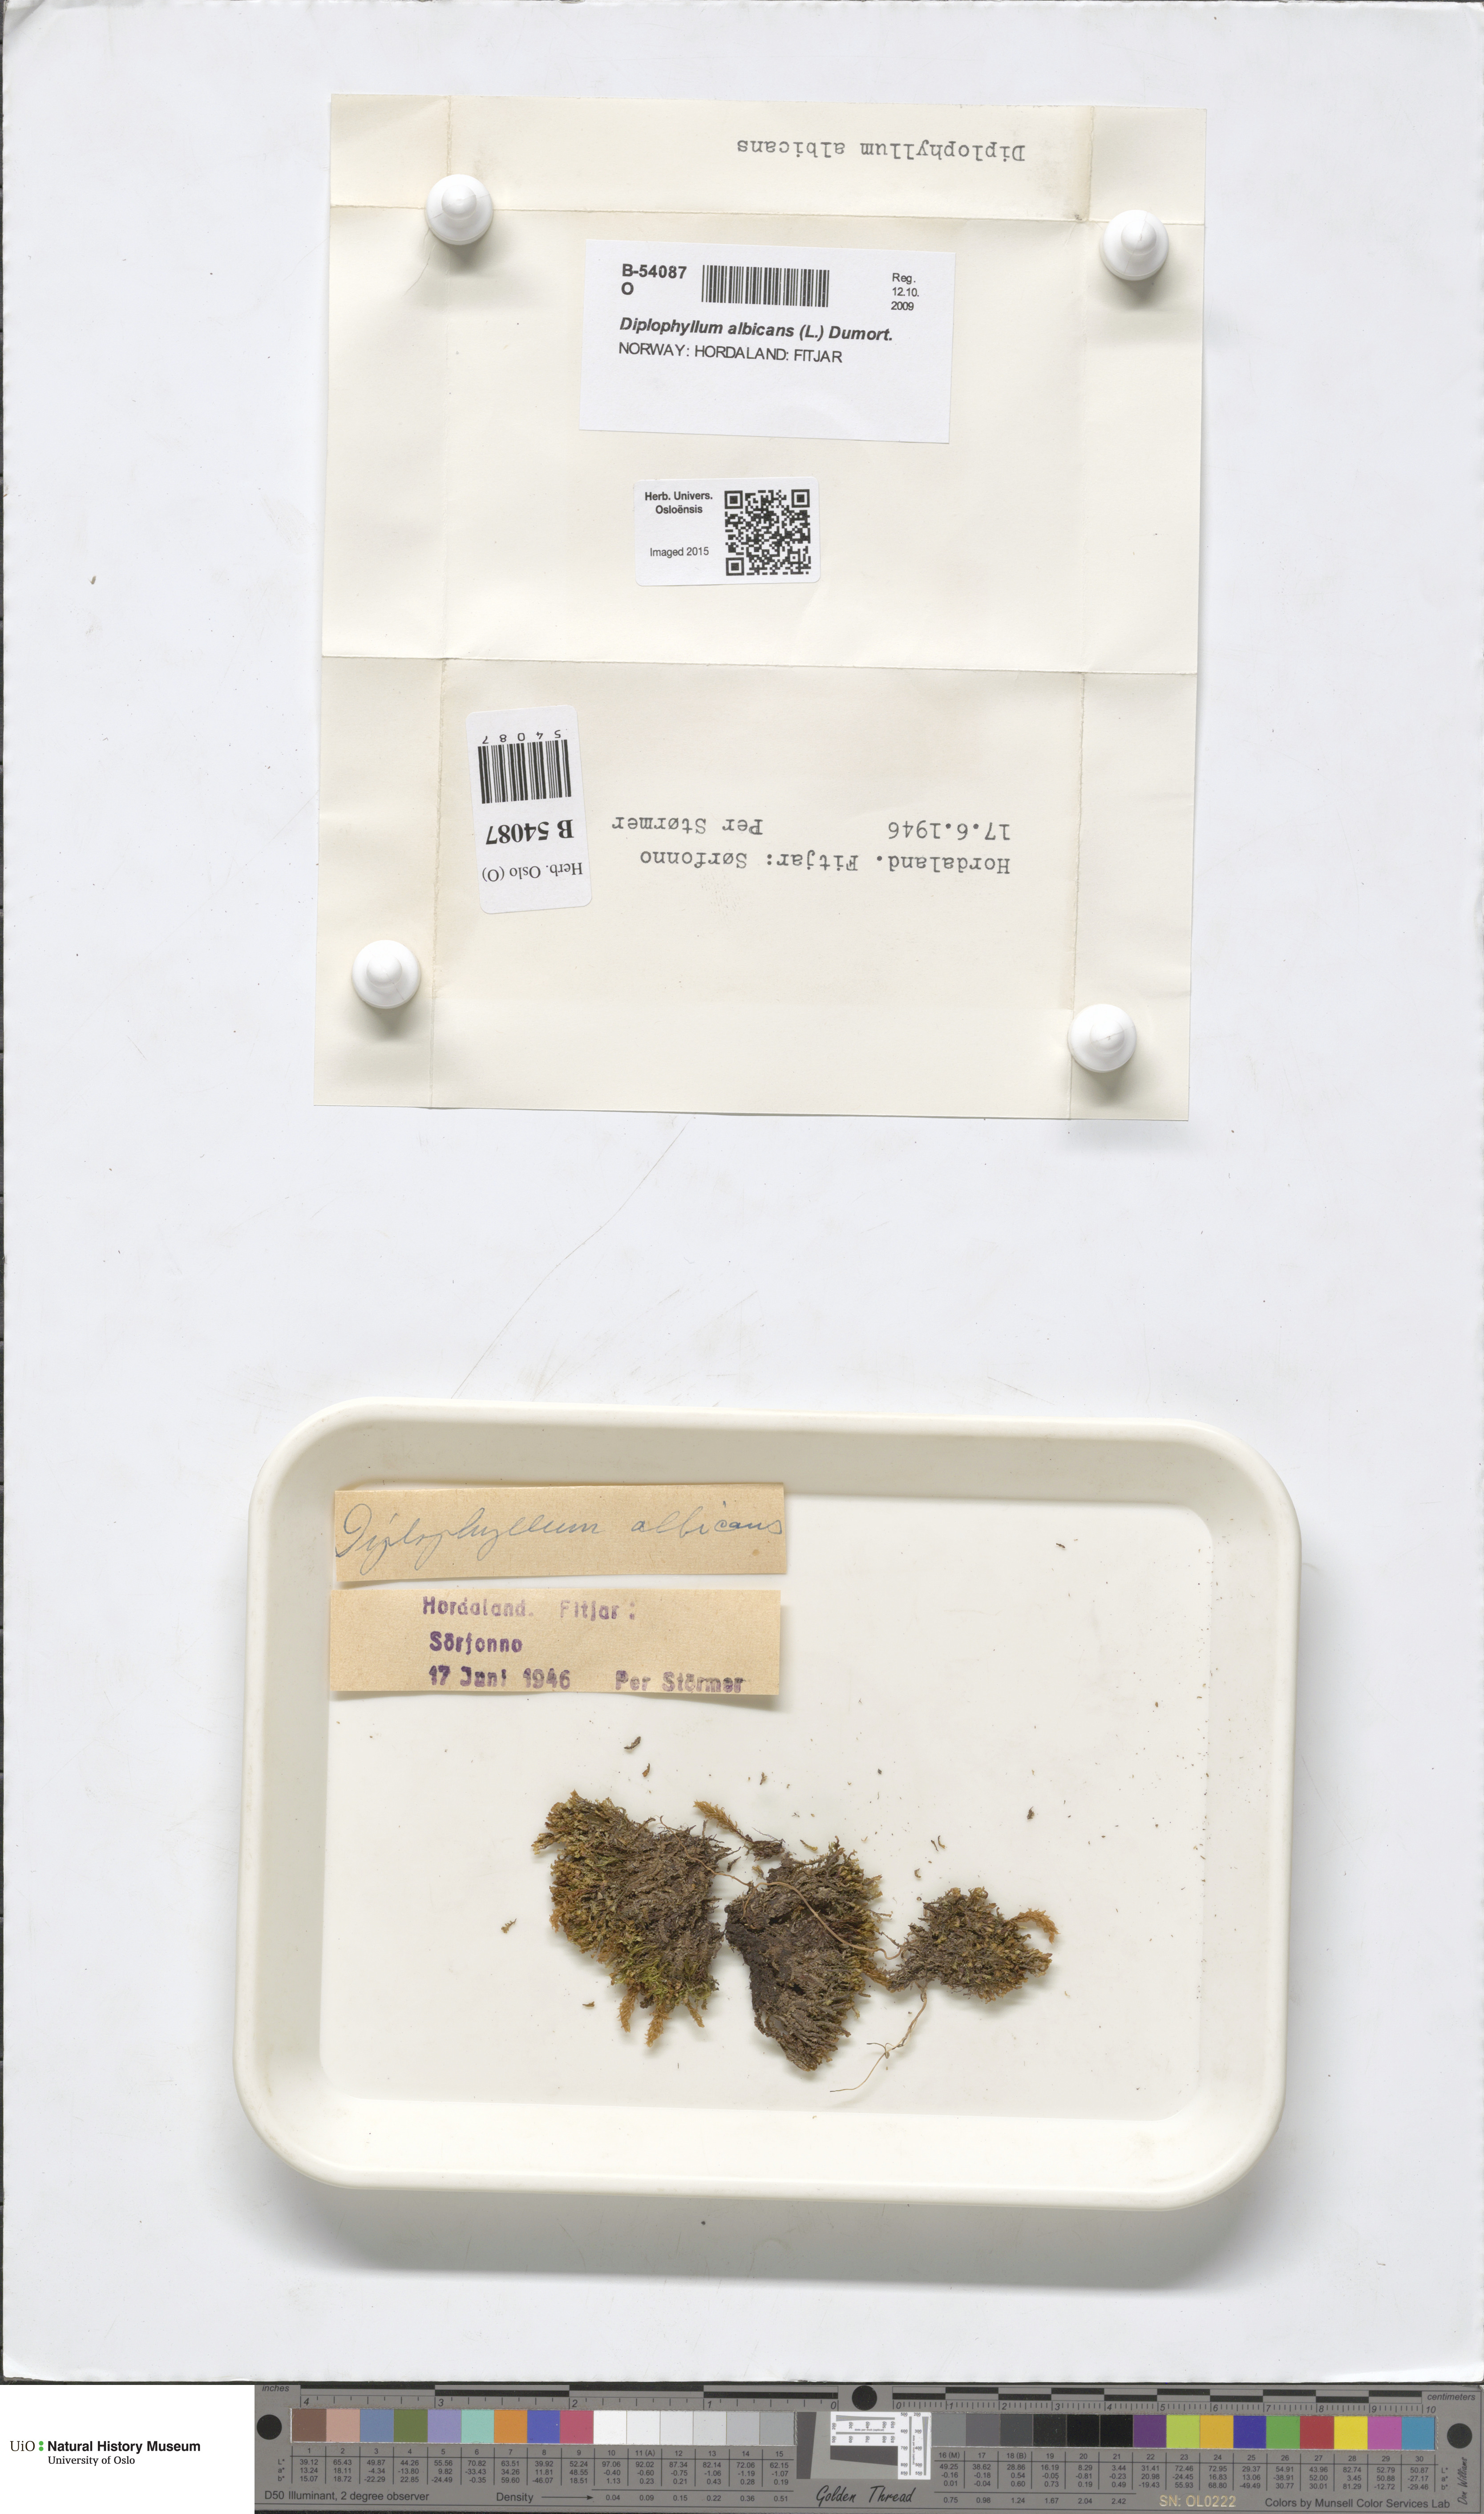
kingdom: Plantae
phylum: Marchantiophyta
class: Jungermanniopsida
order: Jungermanniales
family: Scapaniaceae
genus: Diplophyllum
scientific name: Diplophyllum albicans
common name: White earwort
